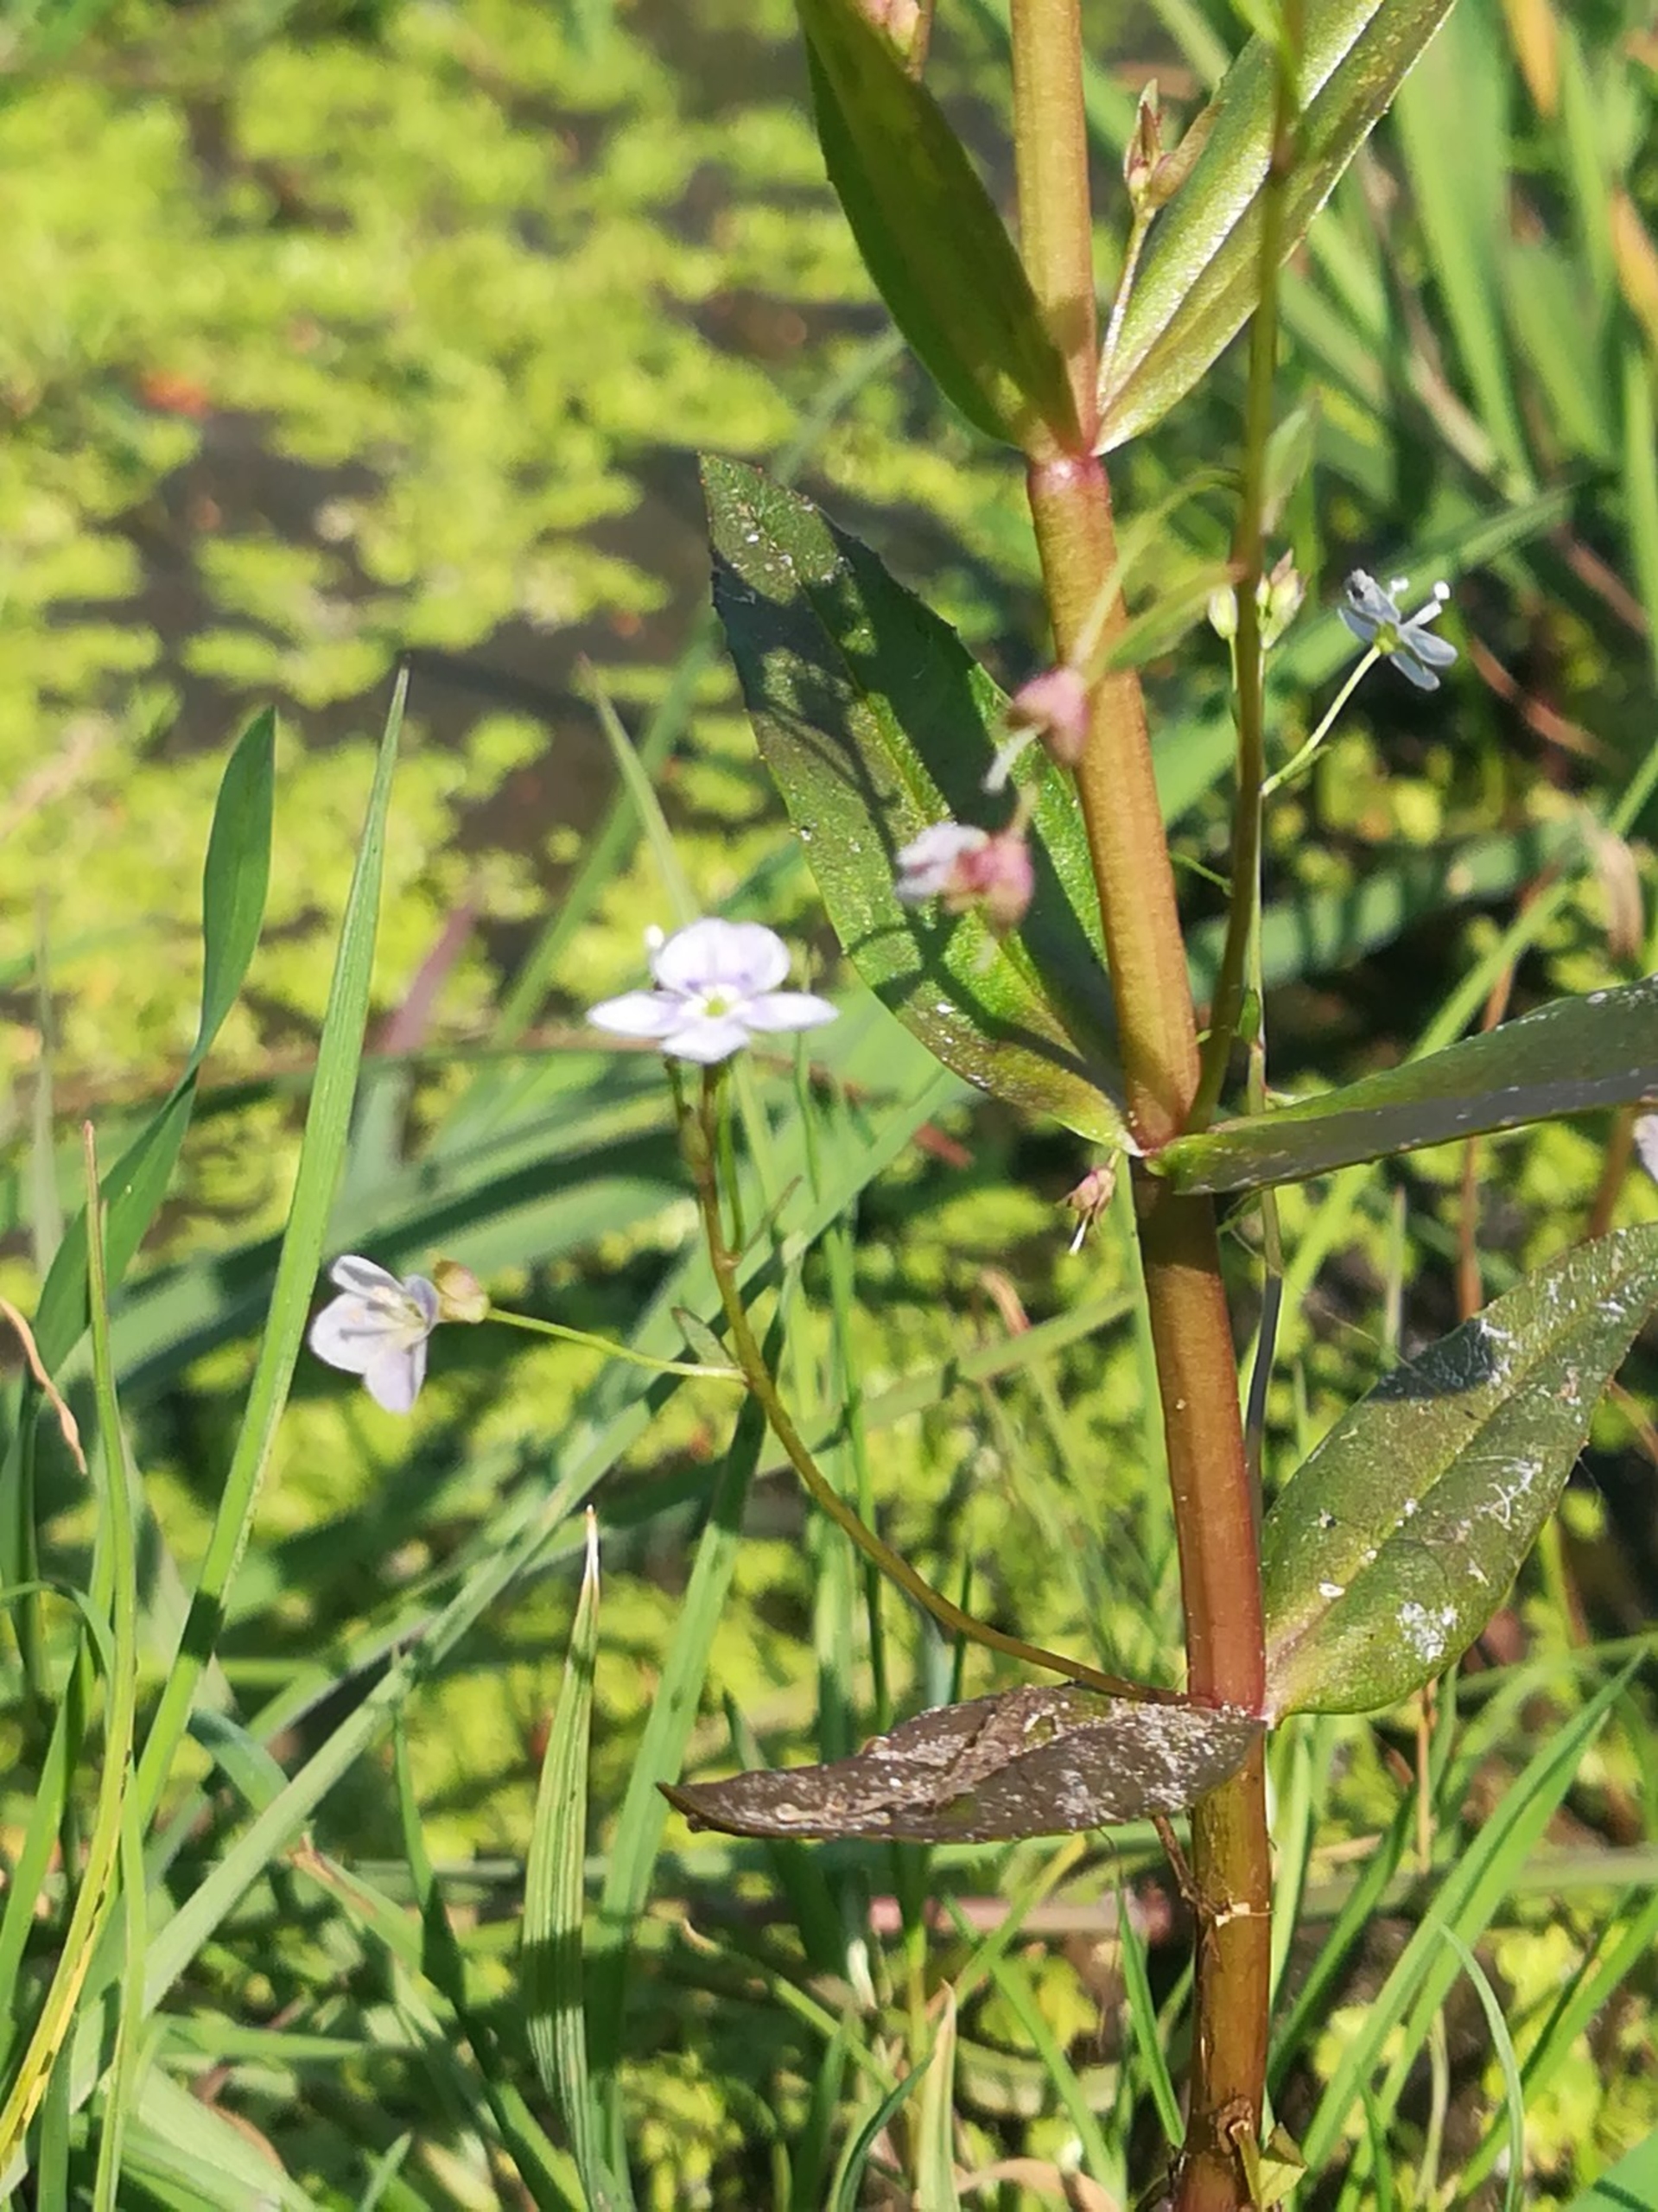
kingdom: Plantae
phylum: Tracheophyta
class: Magnoliopsida
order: Lamiales
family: Plantaginaceae
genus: Veronica
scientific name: Veronica scutellata
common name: Smalbladet ærenpris
